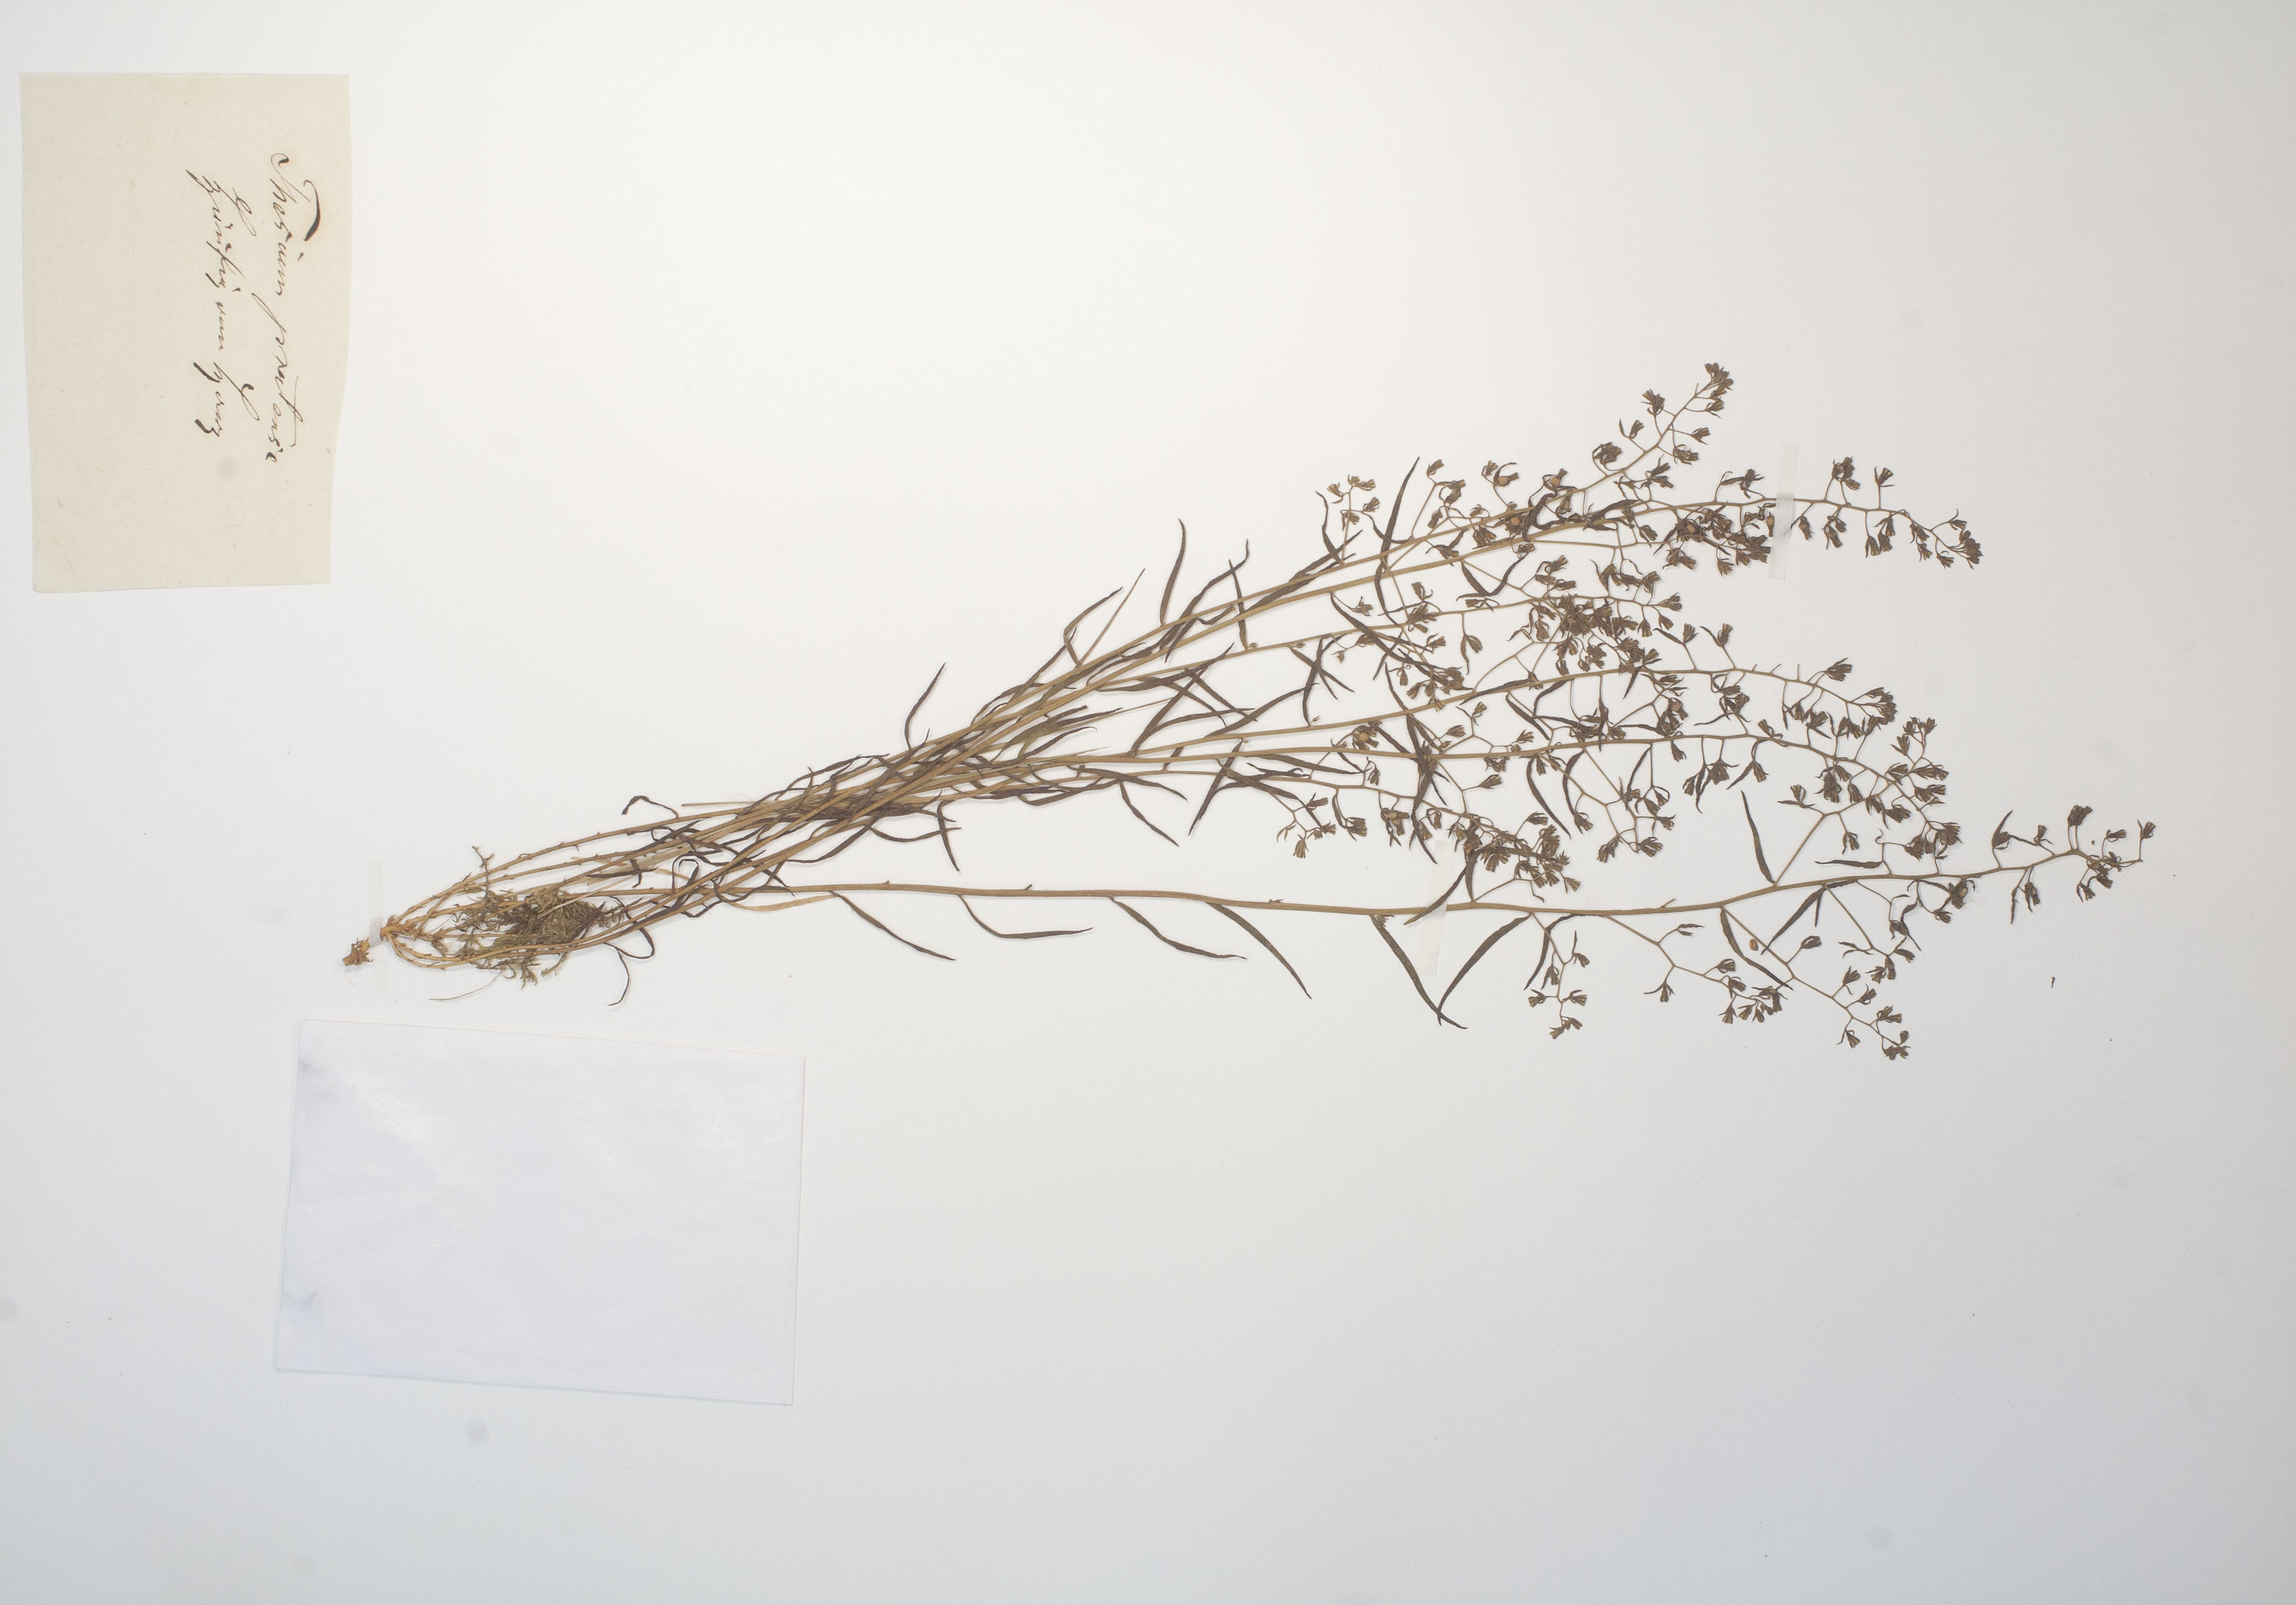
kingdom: Plantae
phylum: Tracheophyta
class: Magnoliopsida
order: Santalales
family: Thesiaceae
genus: Thesium
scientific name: Thesium pyrenaicum
